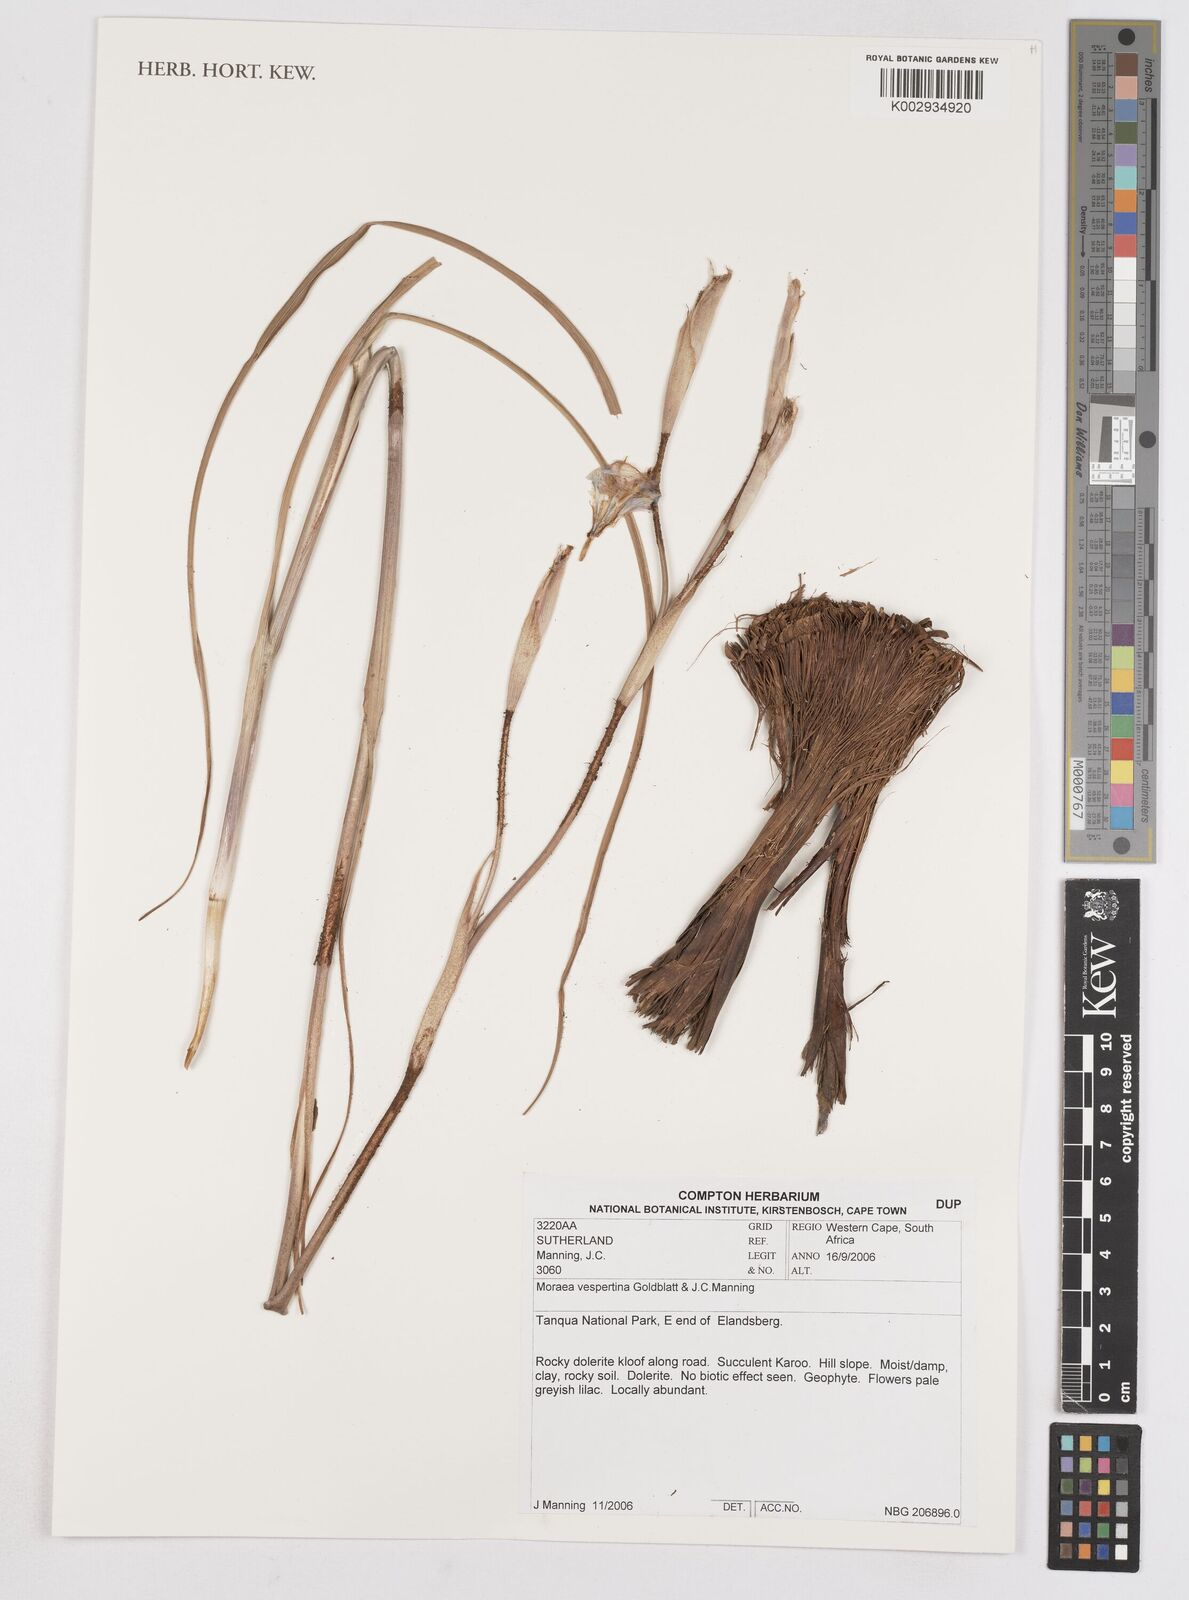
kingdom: Plantae
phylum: Tracheophyta
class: Liliopsida
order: Asparagales
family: Iridaceae
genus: Moraea
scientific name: Moraea vespertina
